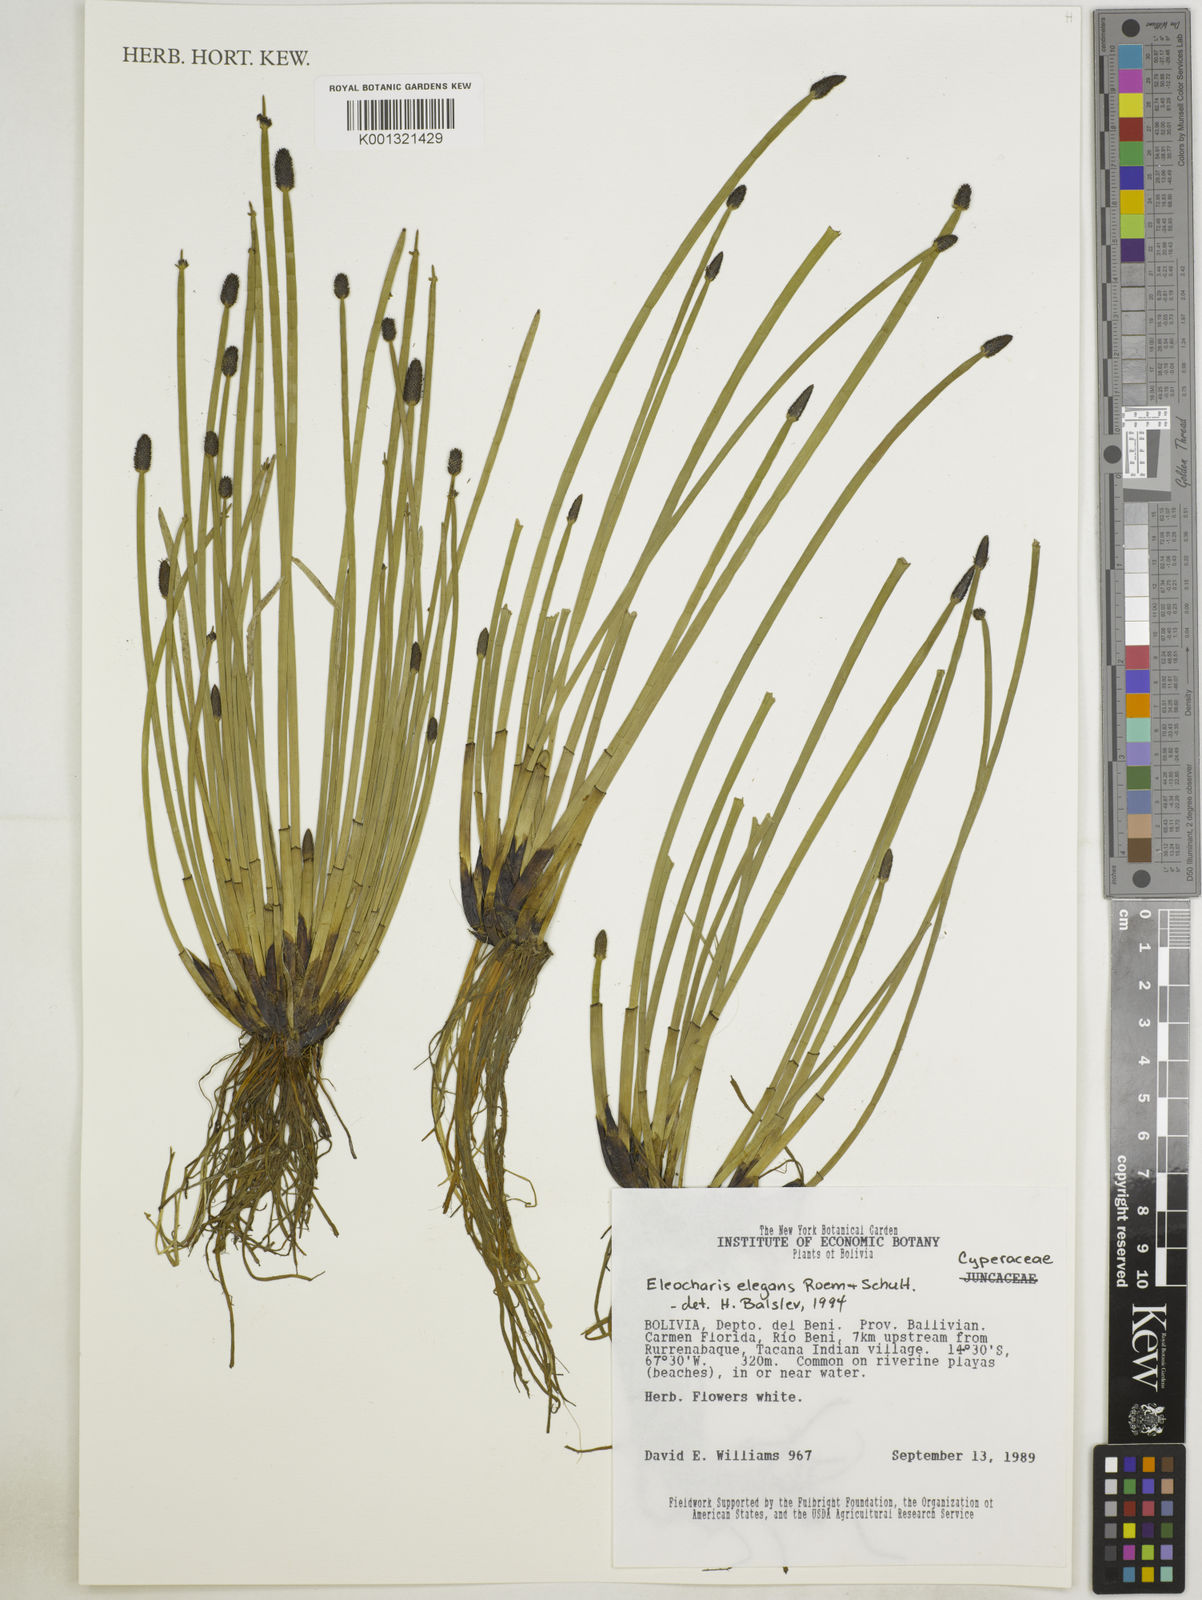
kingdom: Plantae
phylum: Tracheophyta
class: Liliopsida
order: Poales
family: Cyperaceae
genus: Eleocharis
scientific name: Eleocharis elegans
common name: Elegant spike-rush
